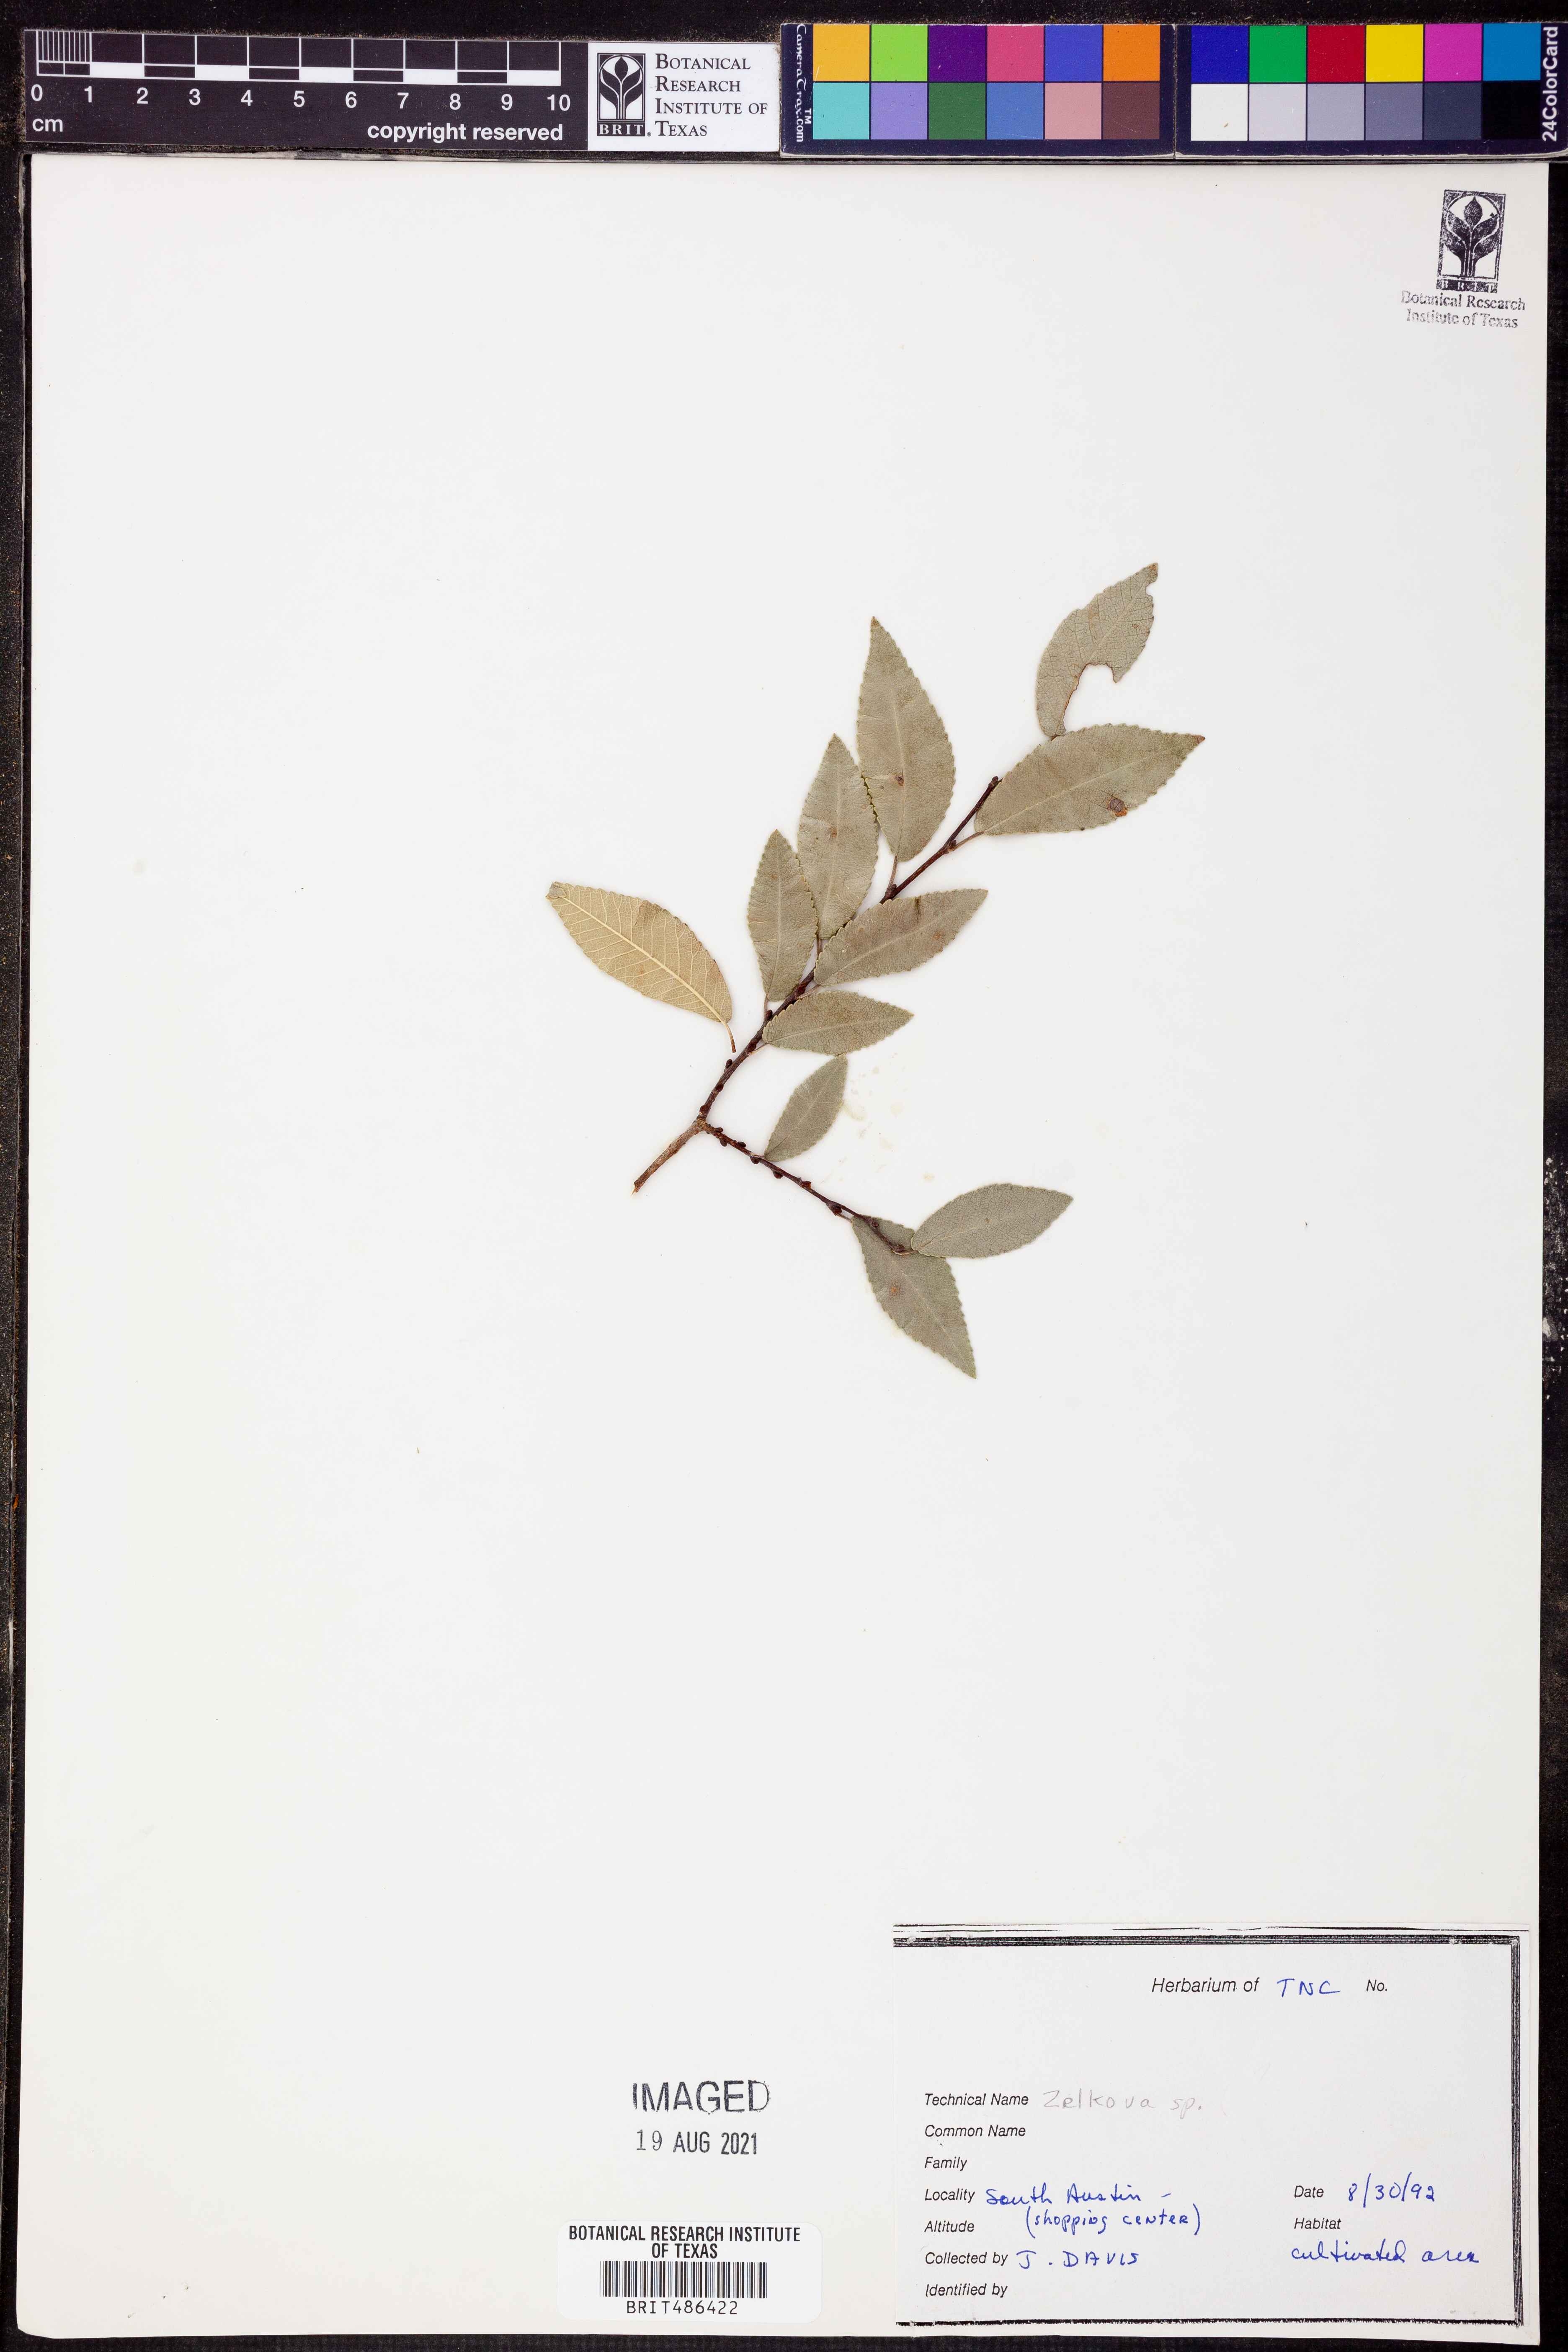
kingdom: Plantae
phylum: Tracheophyta
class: Magnoliopsida
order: Rosales
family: Ulmaceae
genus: Zelkova
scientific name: Zelkova
